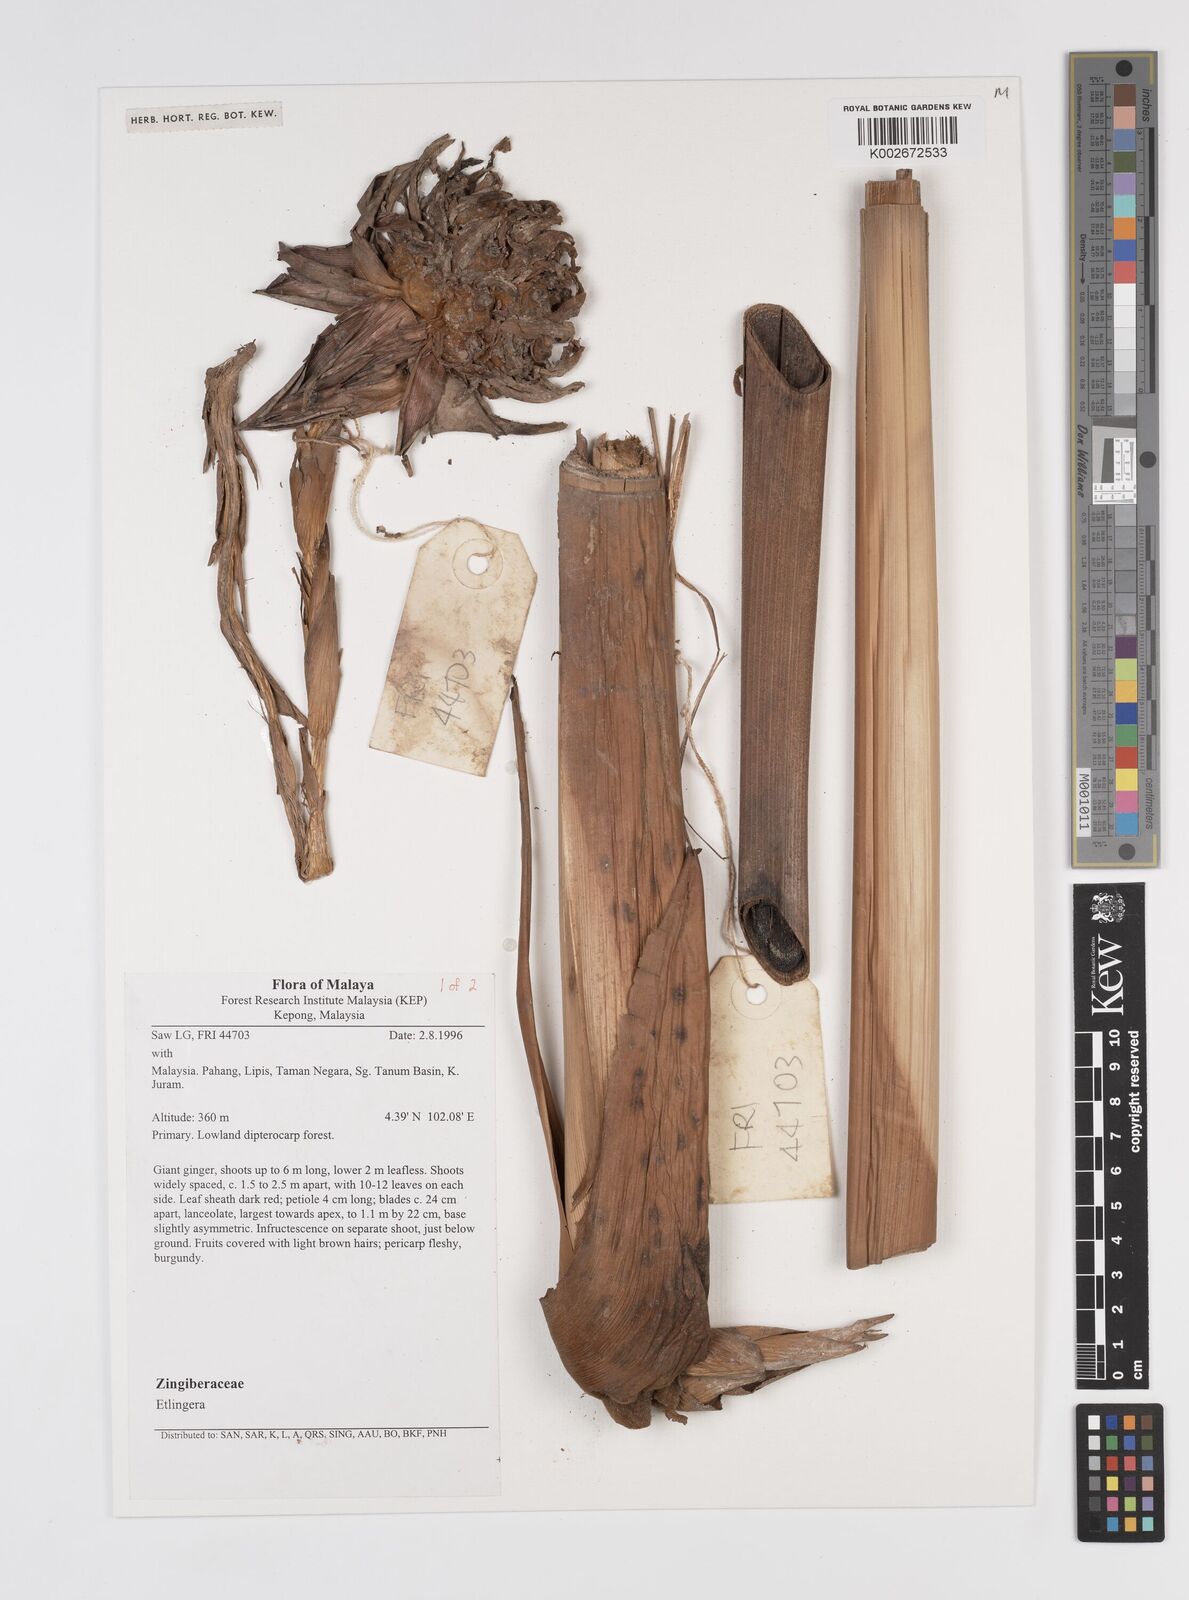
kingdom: Plantae
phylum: Tracheophyta
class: Liliopsida
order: Zingiberales
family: Zingiberaceae
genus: Etlingera
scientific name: Etlingera
